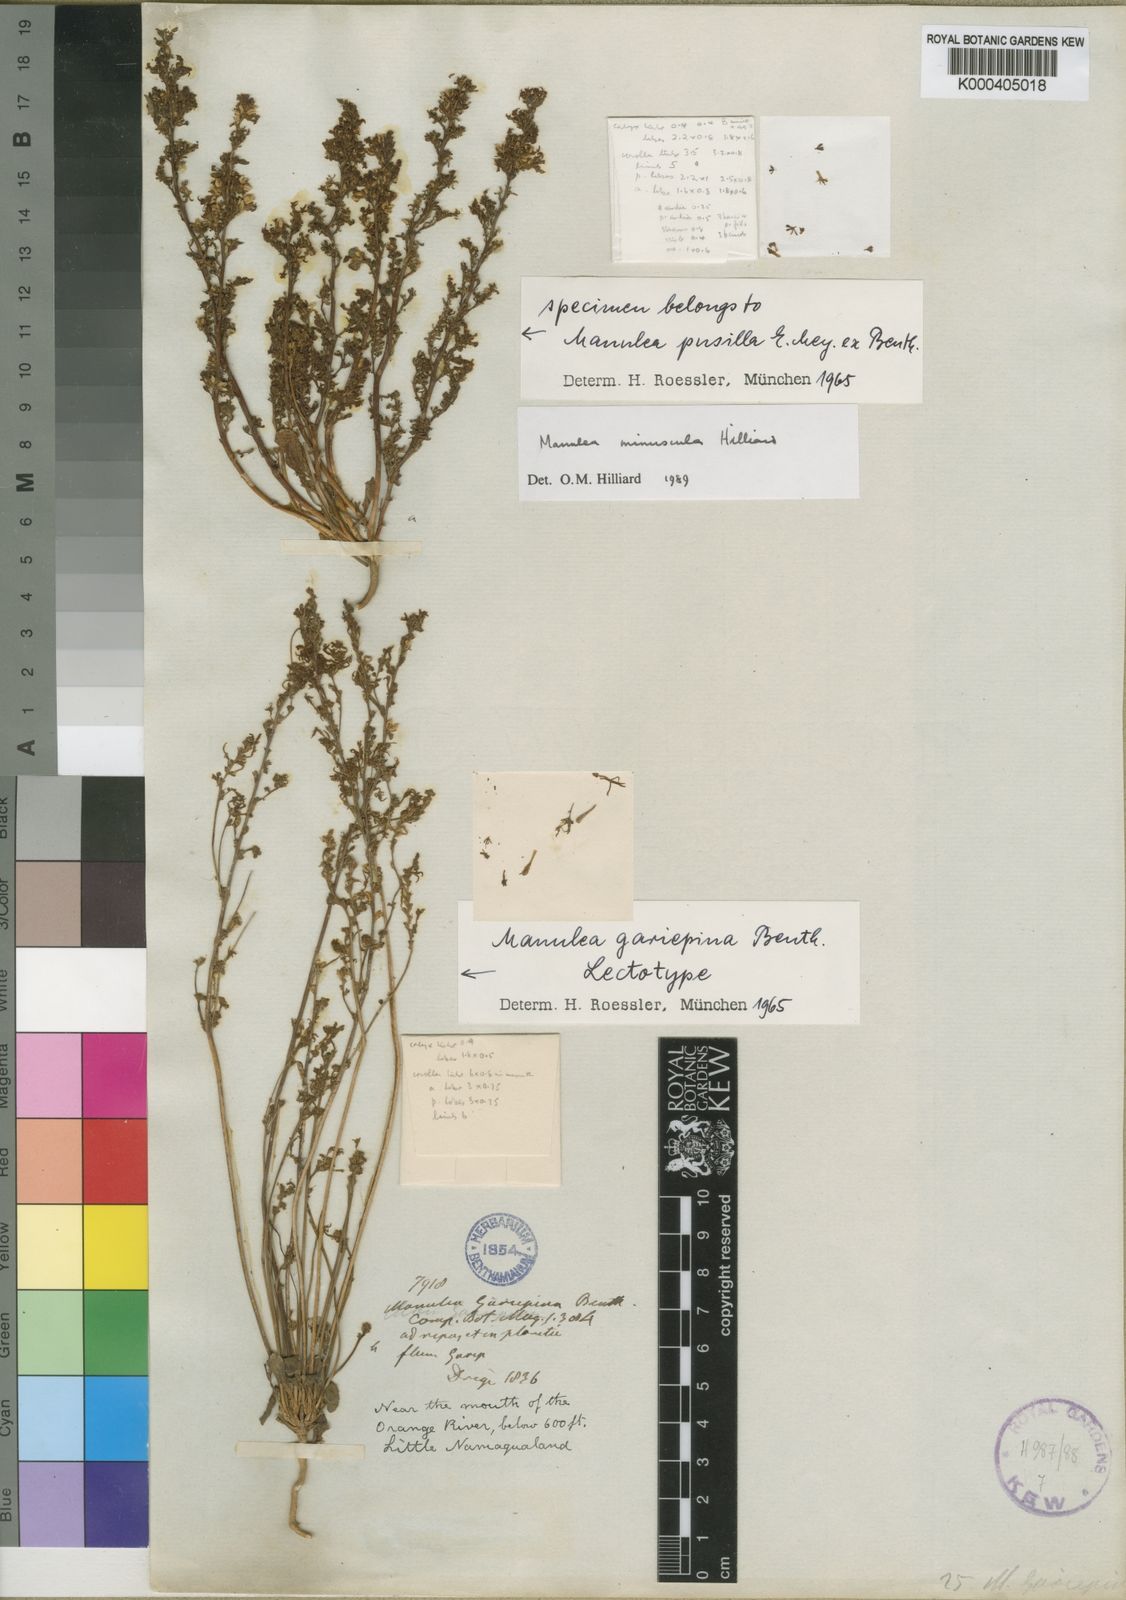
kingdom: Plantae
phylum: Tracheophyta
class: Magnoliopsida
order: Lamiales
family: Scrophulariaceae
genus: Manulea
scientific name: Manulea gariepina
